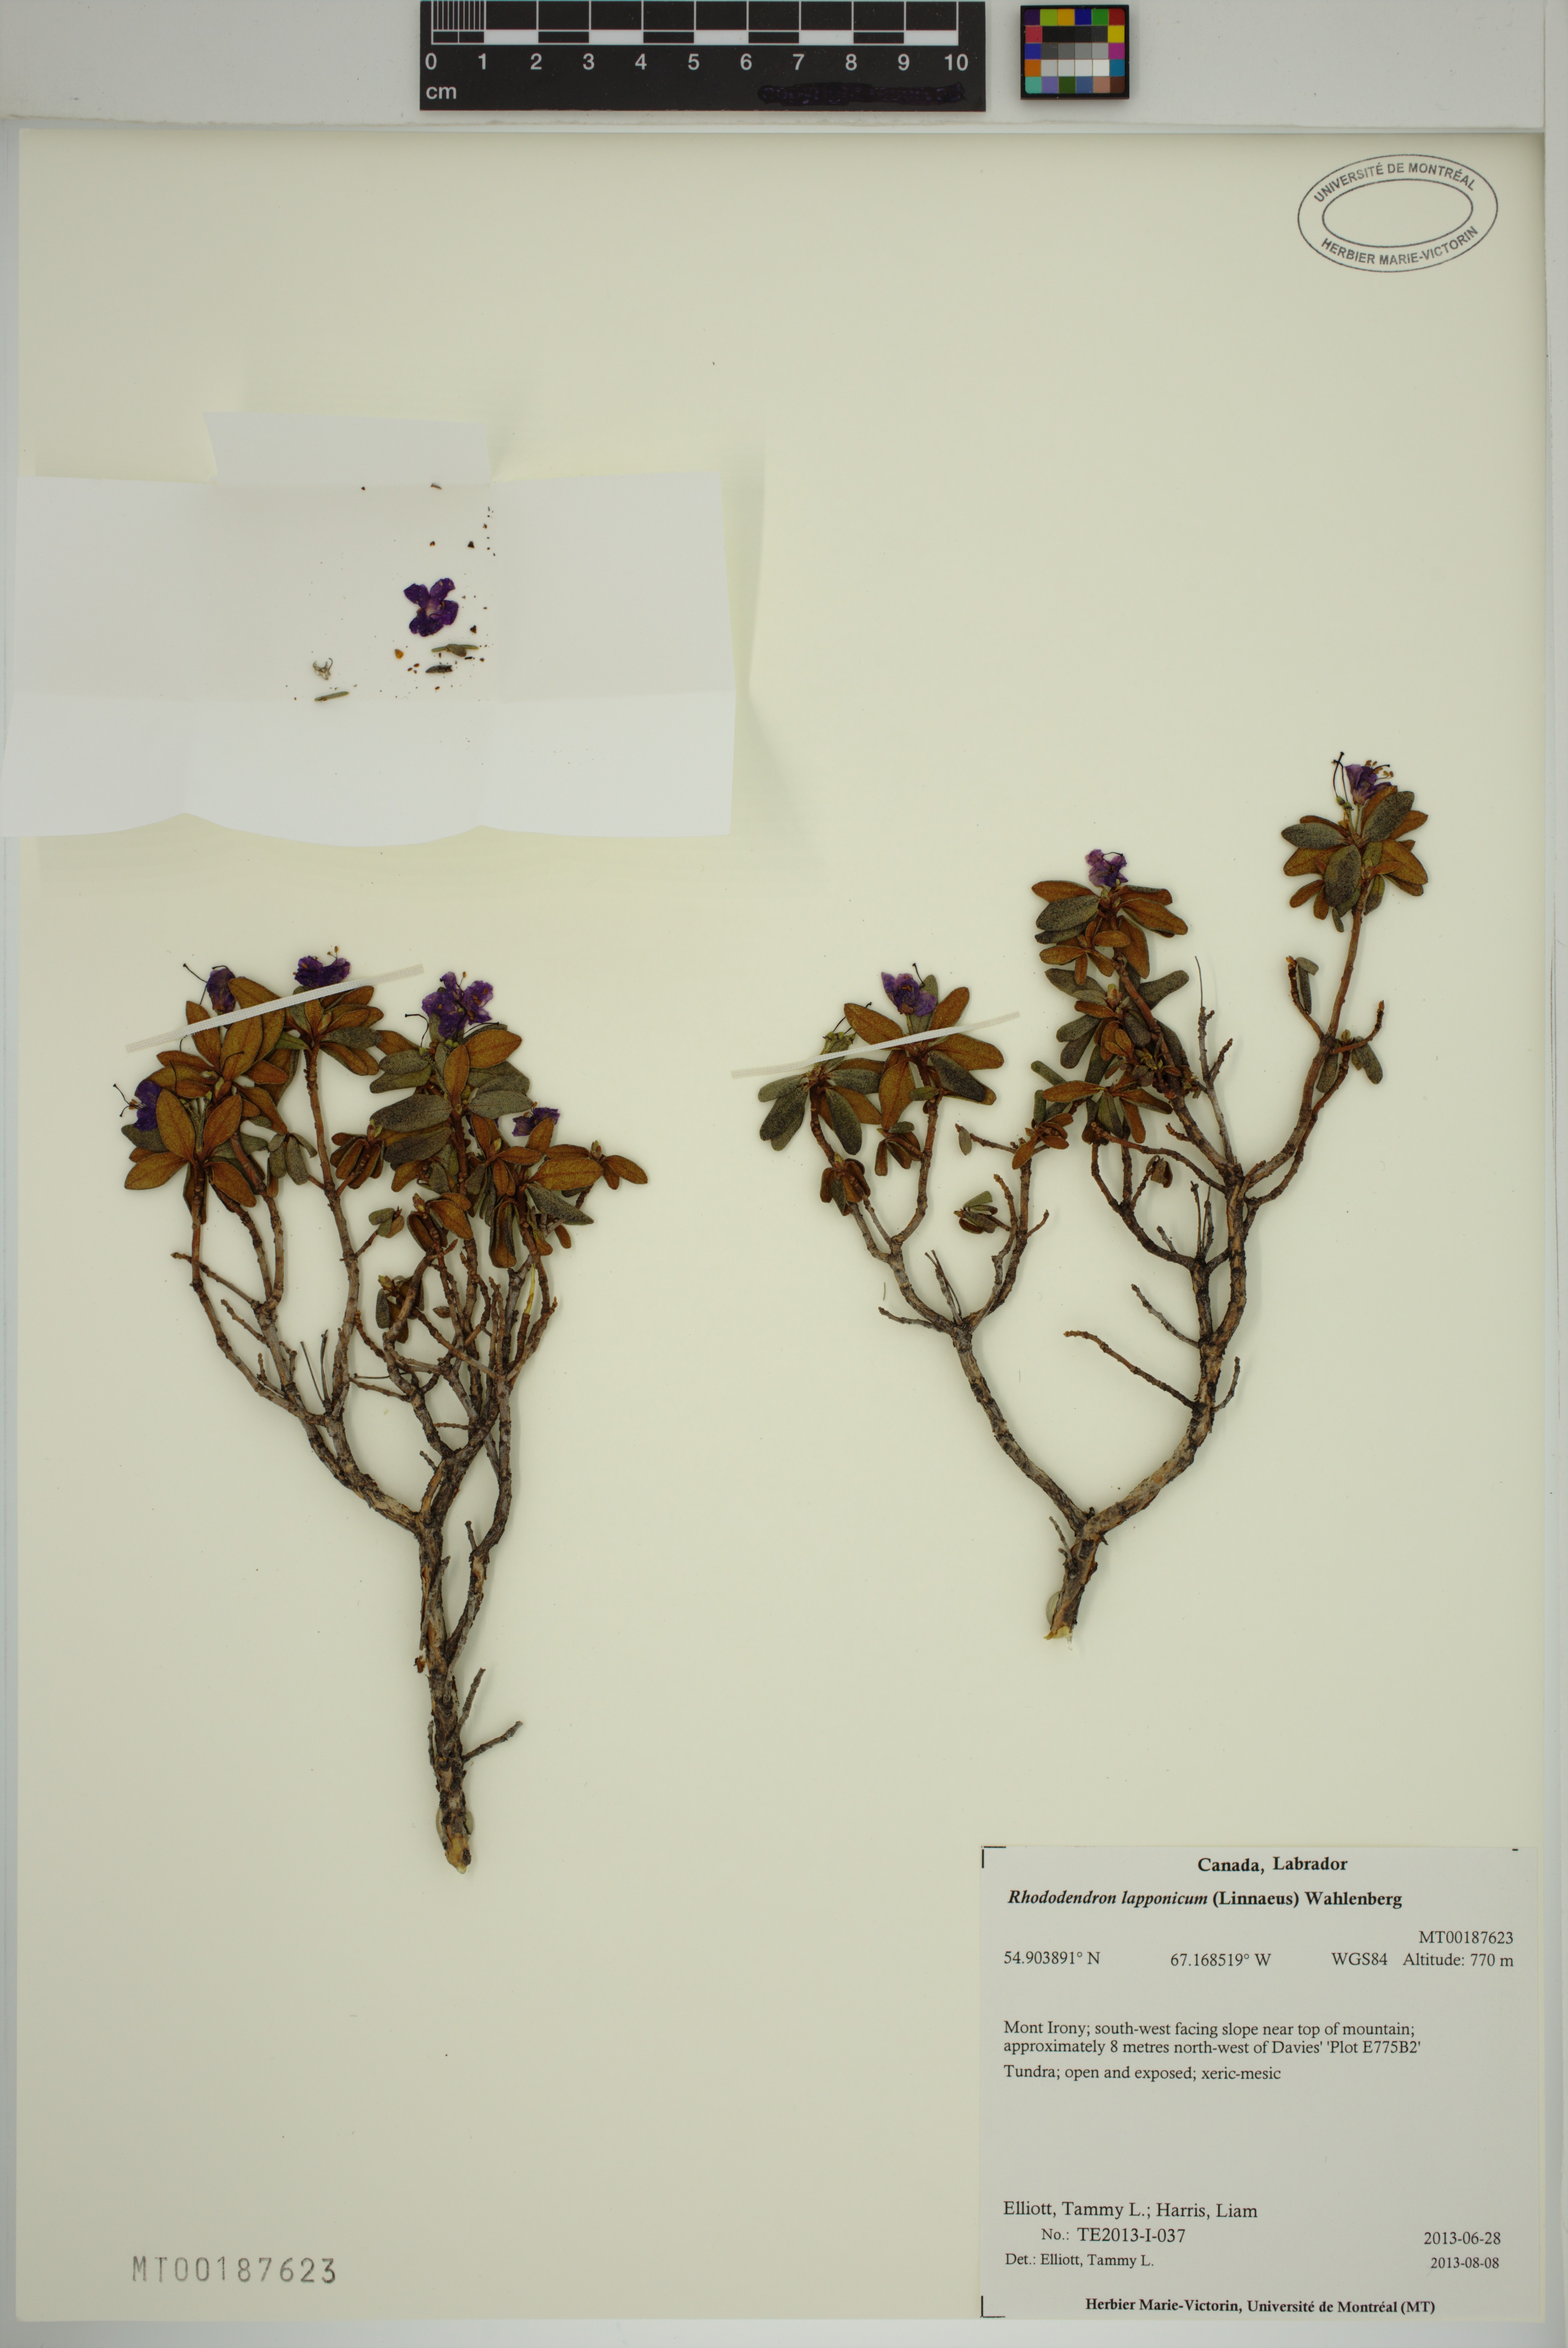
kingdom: Plantae
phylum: Tracheophyta
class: Magnoliopsida
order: Ericales
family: Ericaceae
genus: Rhododendron
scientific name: Rhododendron lapponicum
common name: Lapland rhododendron
